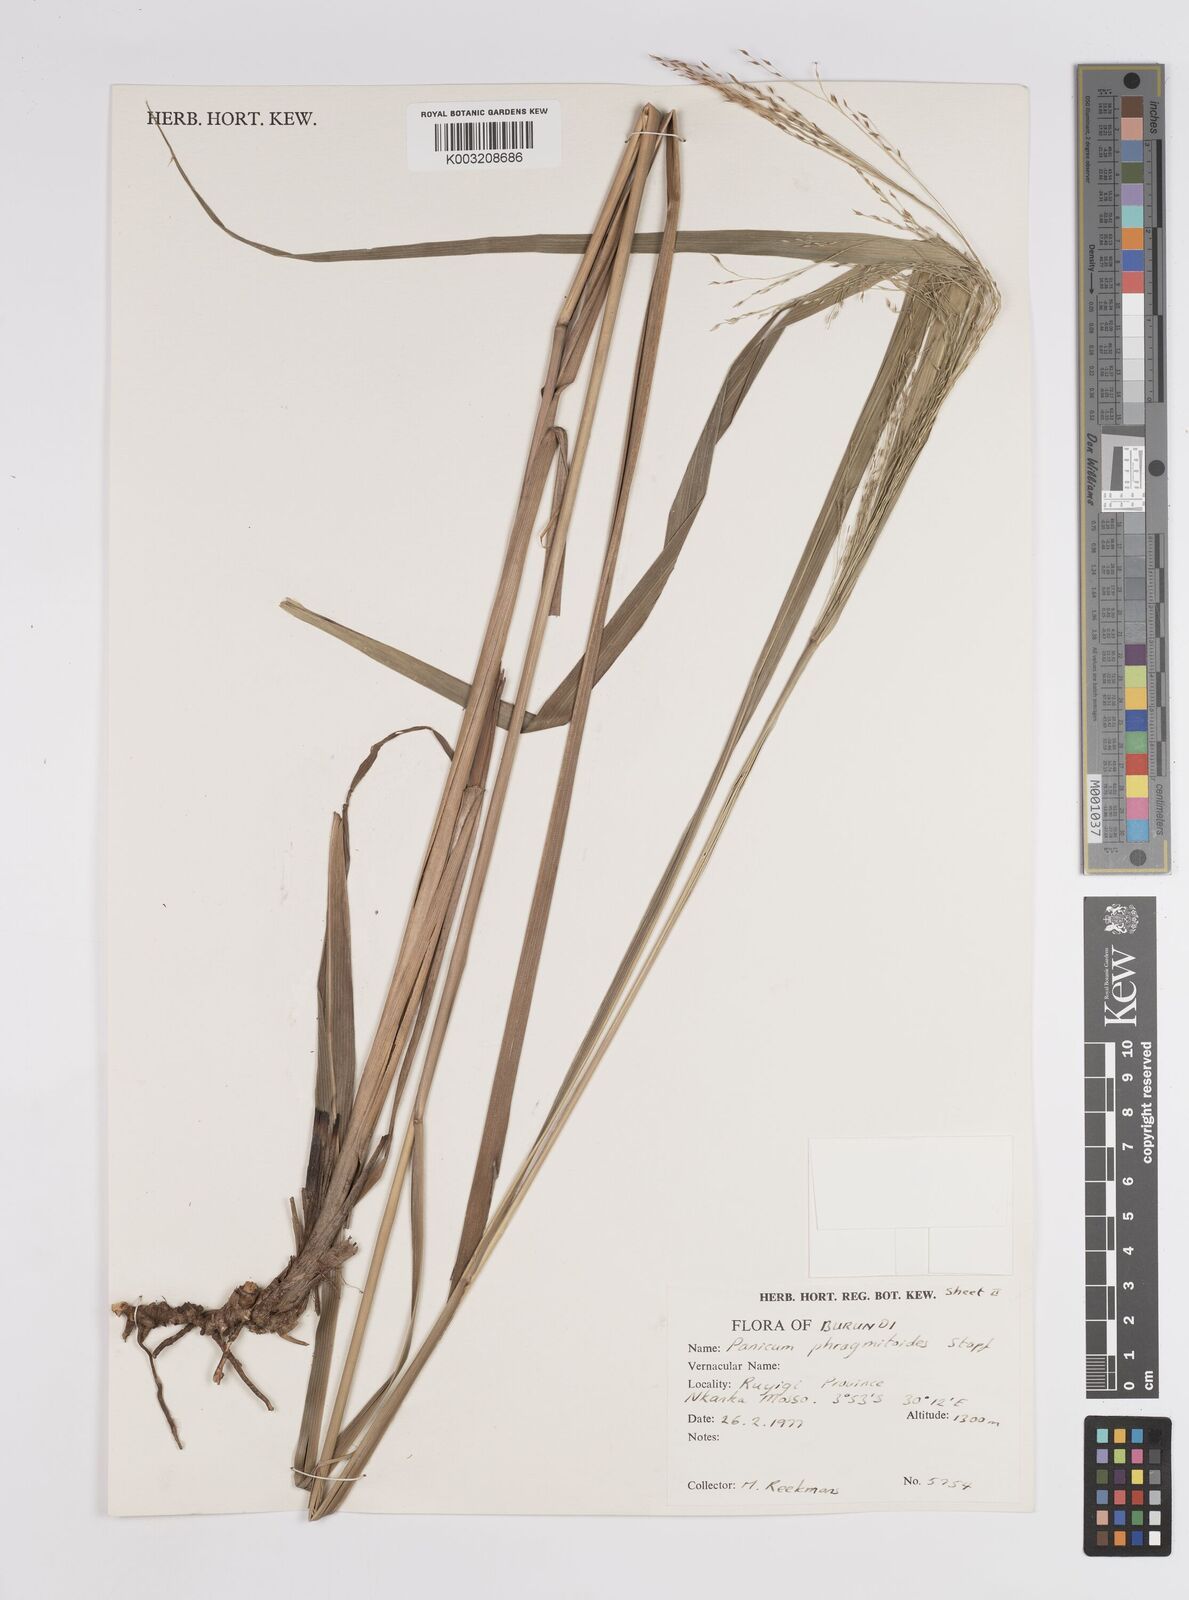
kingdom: Plantae
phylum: Tracheophyta
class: Liliopsida
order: Poales
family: Poaceae
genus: Panicum
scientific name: Panicum phragmitoides
